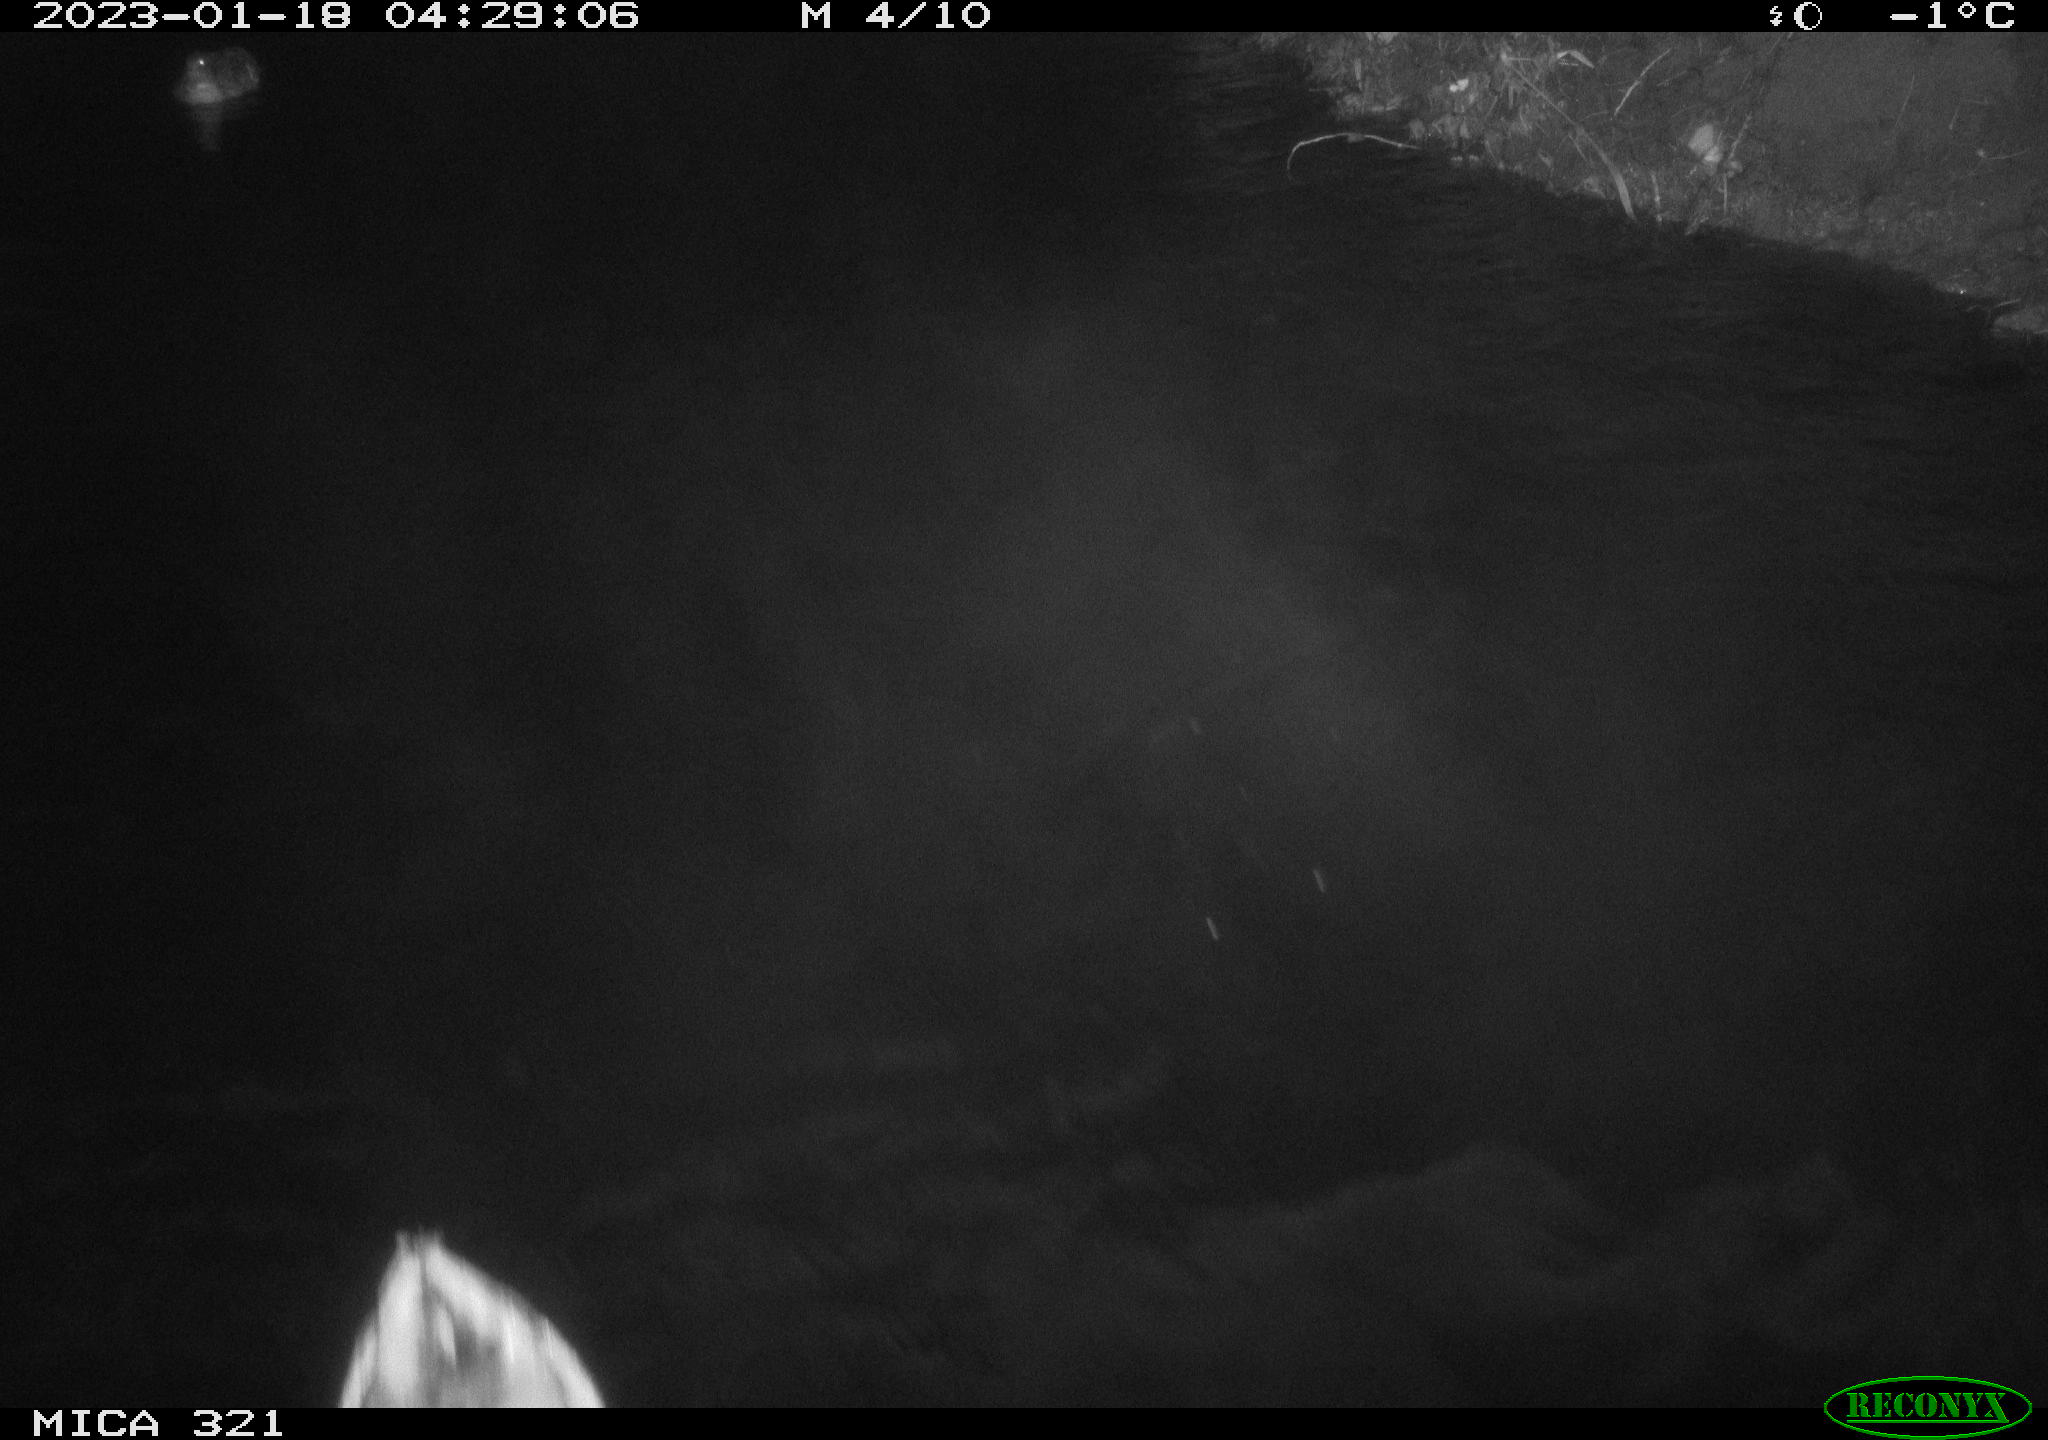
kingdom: Animalia
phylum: Chordata
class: Aves
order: Anseriformes
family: Anatidae
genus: Anas
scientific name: Anas
